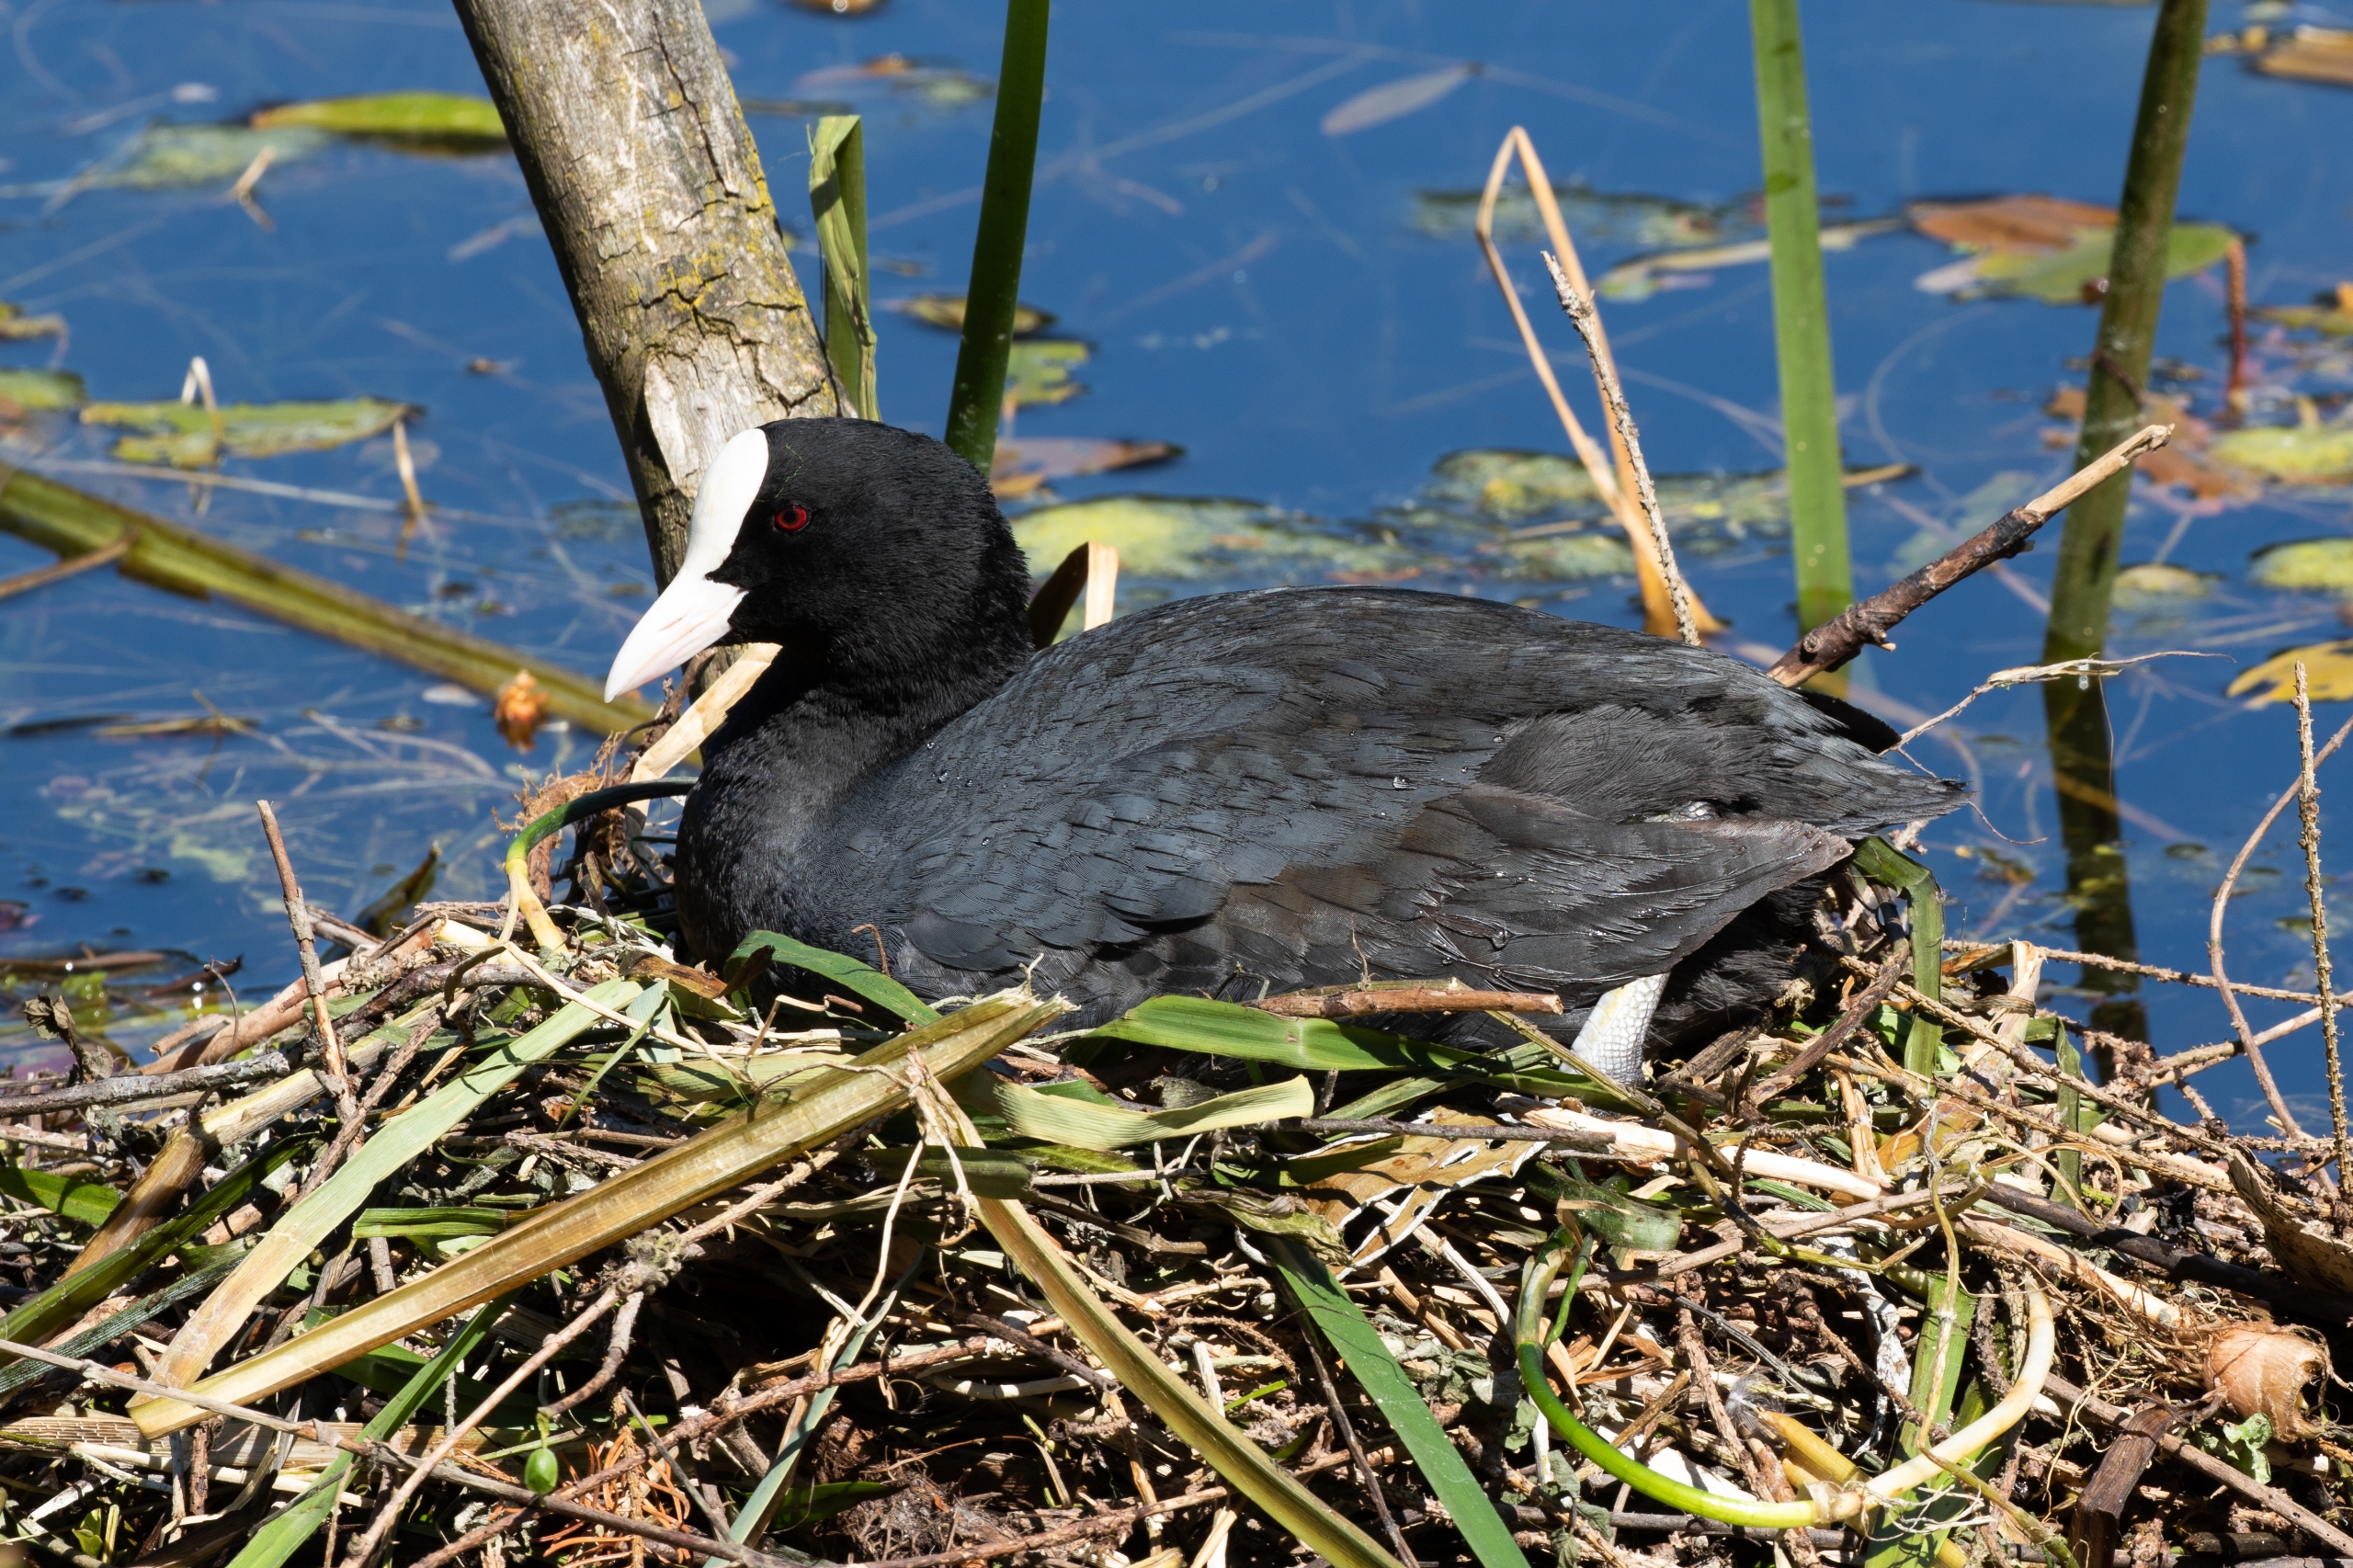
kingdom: Animalia
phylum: Chordata
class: Aves
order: Gruiformes
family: Rallidae
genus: Fulica
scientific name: Fulica atra
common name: Blishøne
